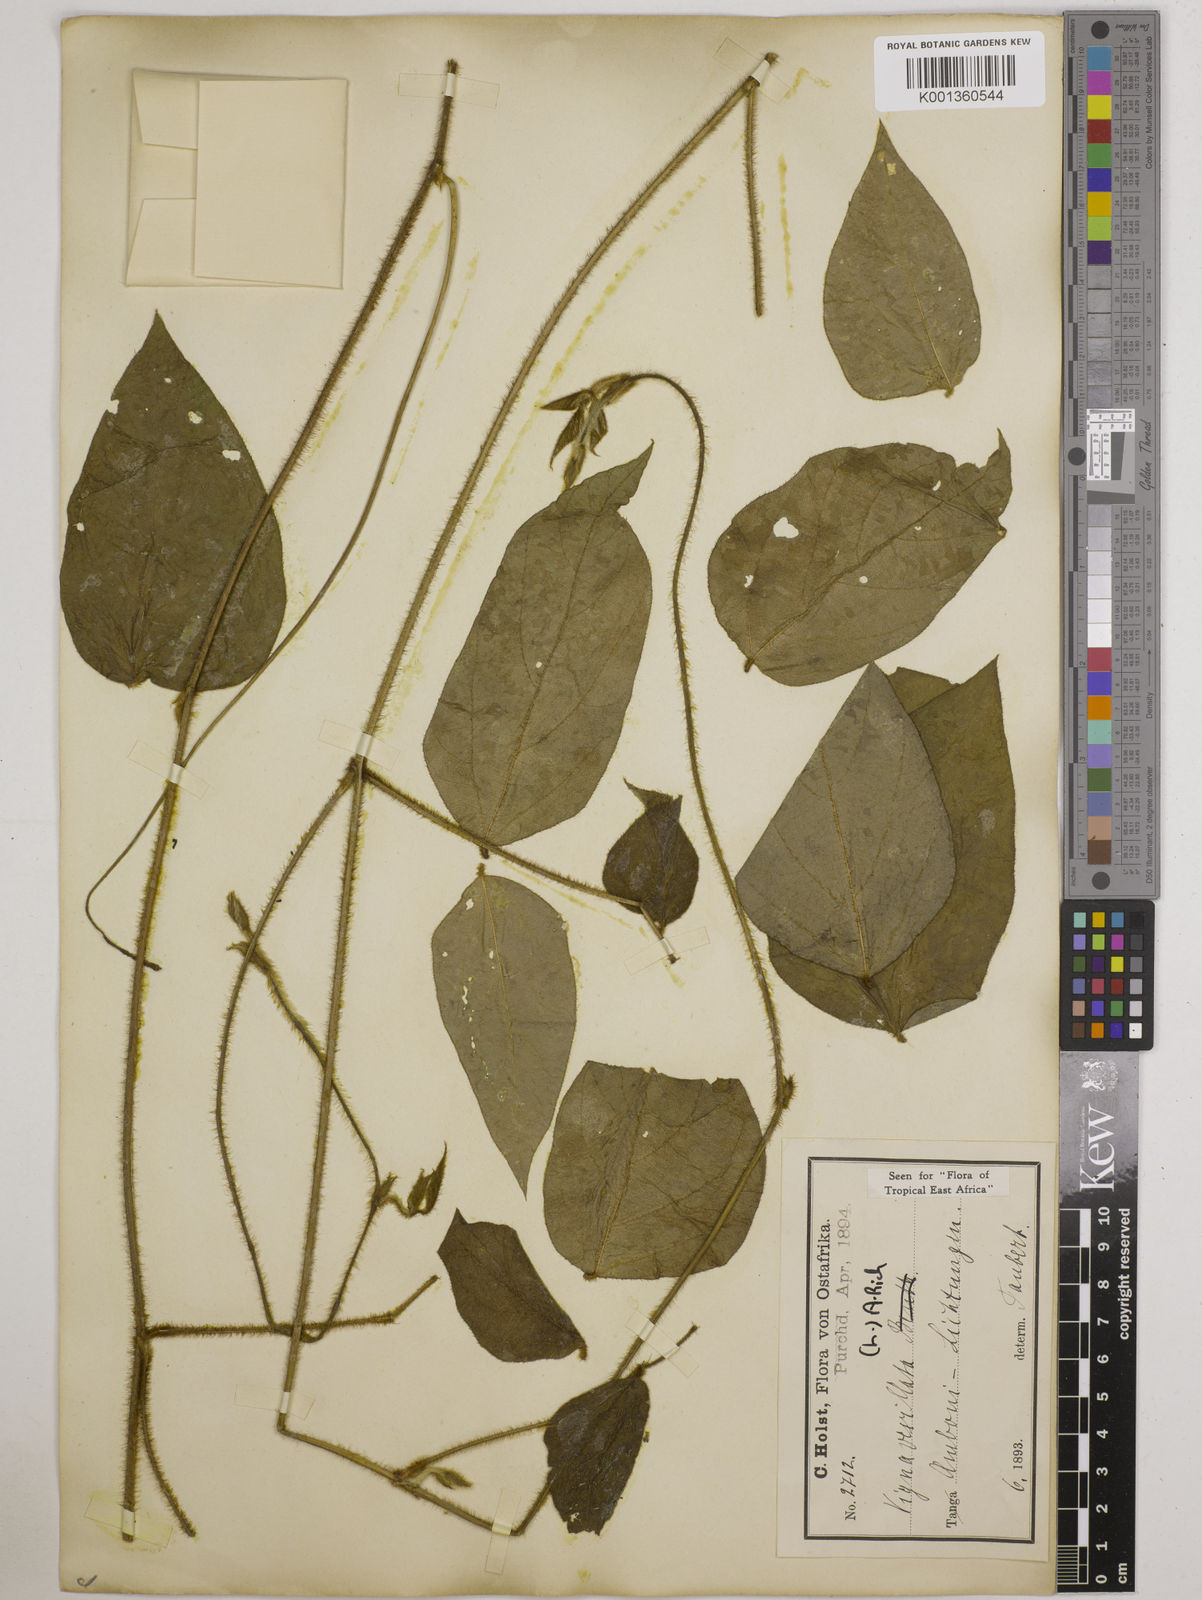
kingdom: Plantae
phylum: Tracheophyta
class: Magnoliopsida
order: Fabales
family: Fabaceae
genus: Vigna
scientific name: Vigna vexillata
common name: Zombi pea
